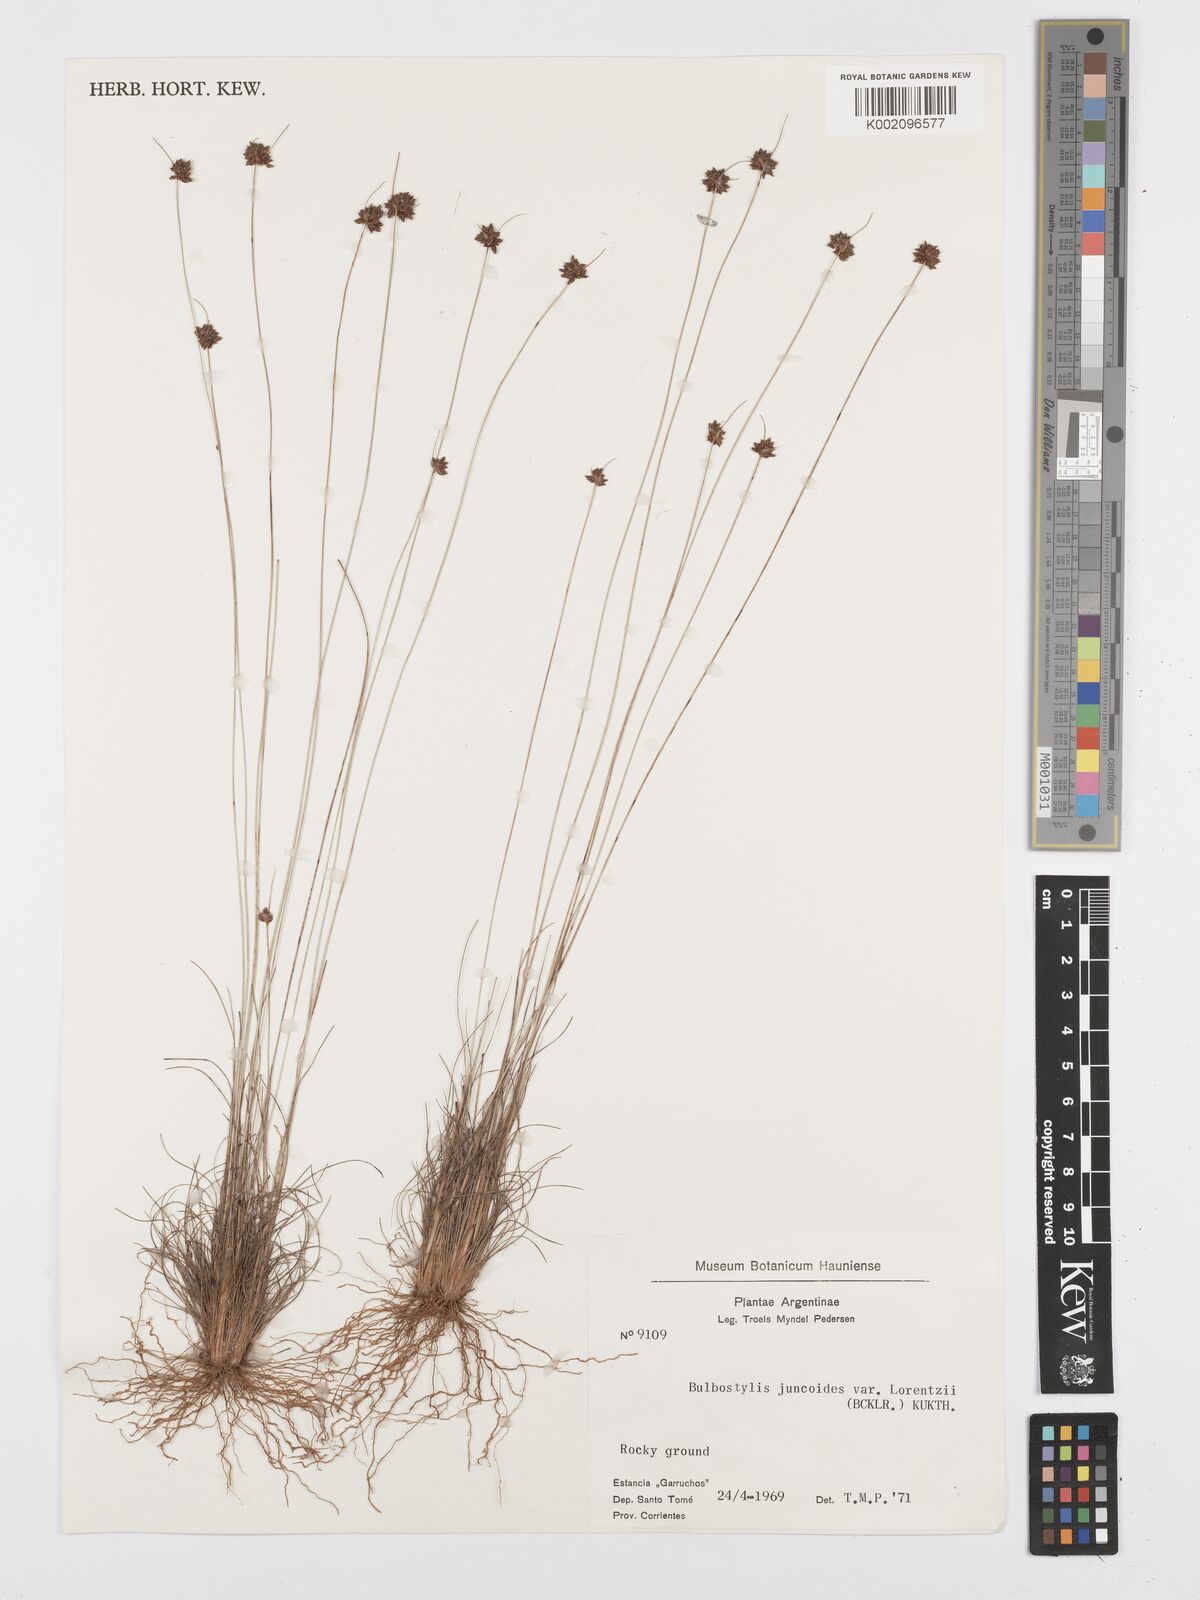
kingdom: Plantae
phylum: Tracheophyta
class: Liliopsida
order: Poales
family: Cyperaceae
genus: Bulbostylis
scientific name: Bulbostylis
